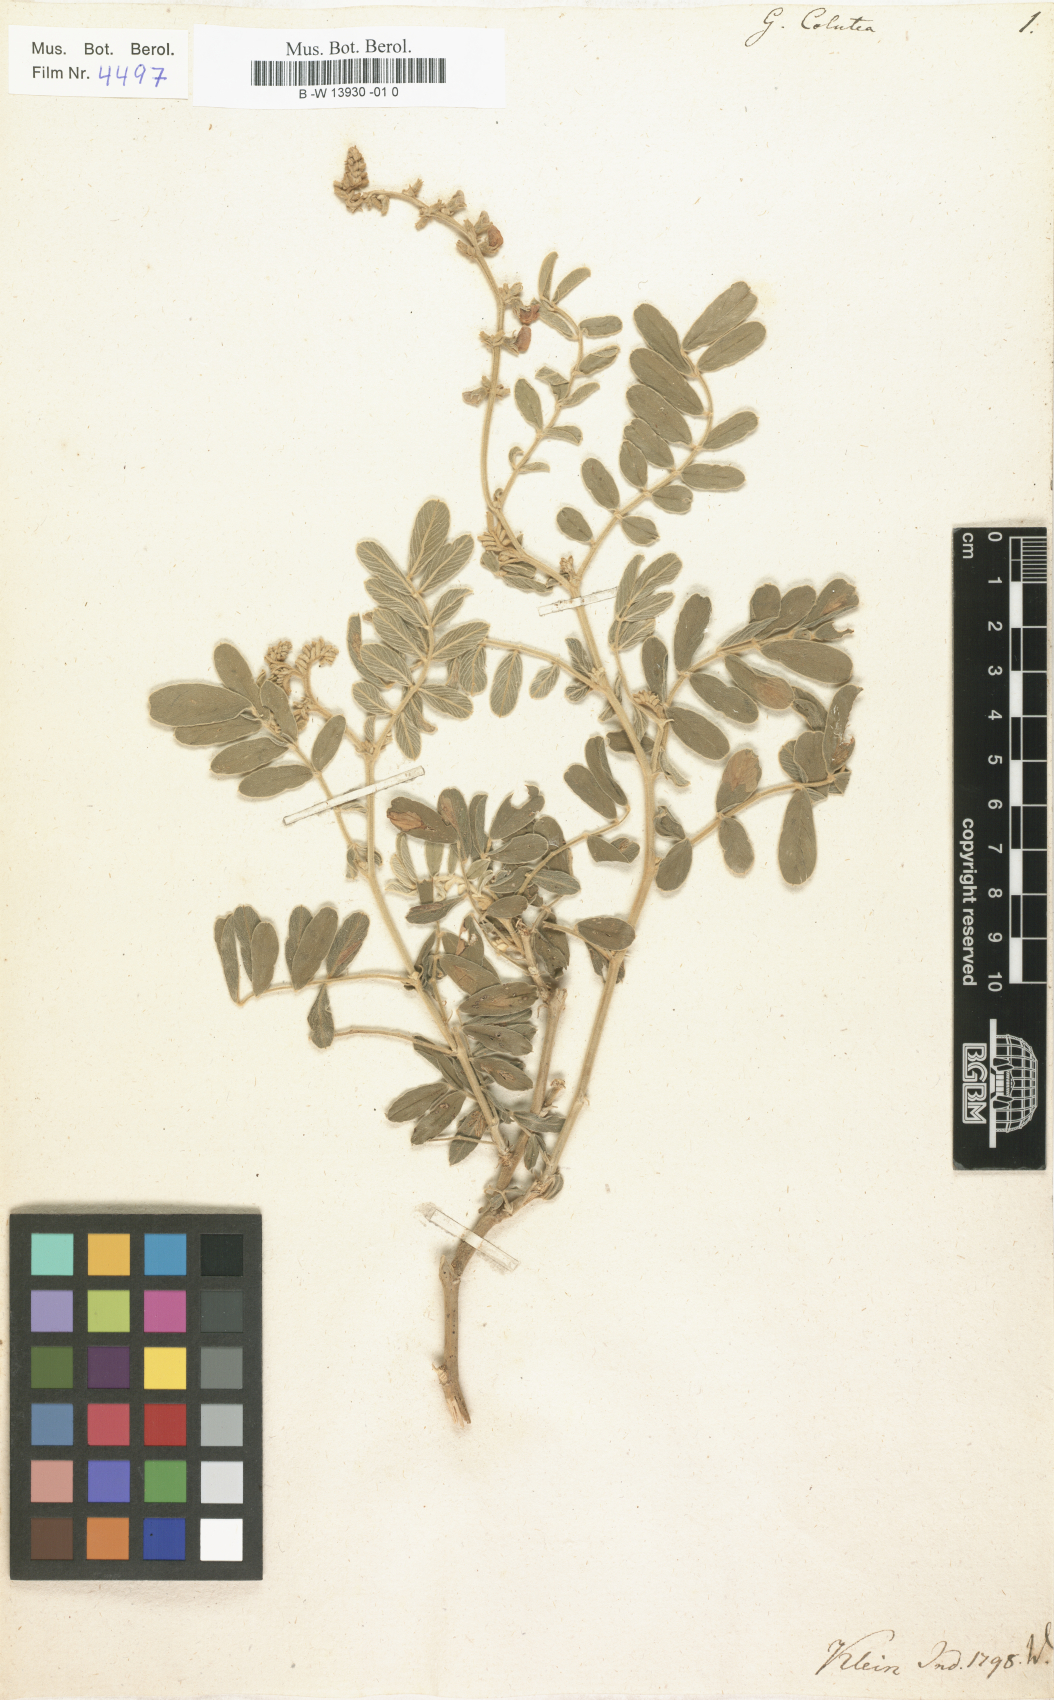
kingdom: Plantae
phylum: Tracheophyta
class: Magnoliopsida
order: Fabales
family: Fabaceae
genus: Indigofera
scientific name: Indigofera colutea
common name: Rusty indigo
